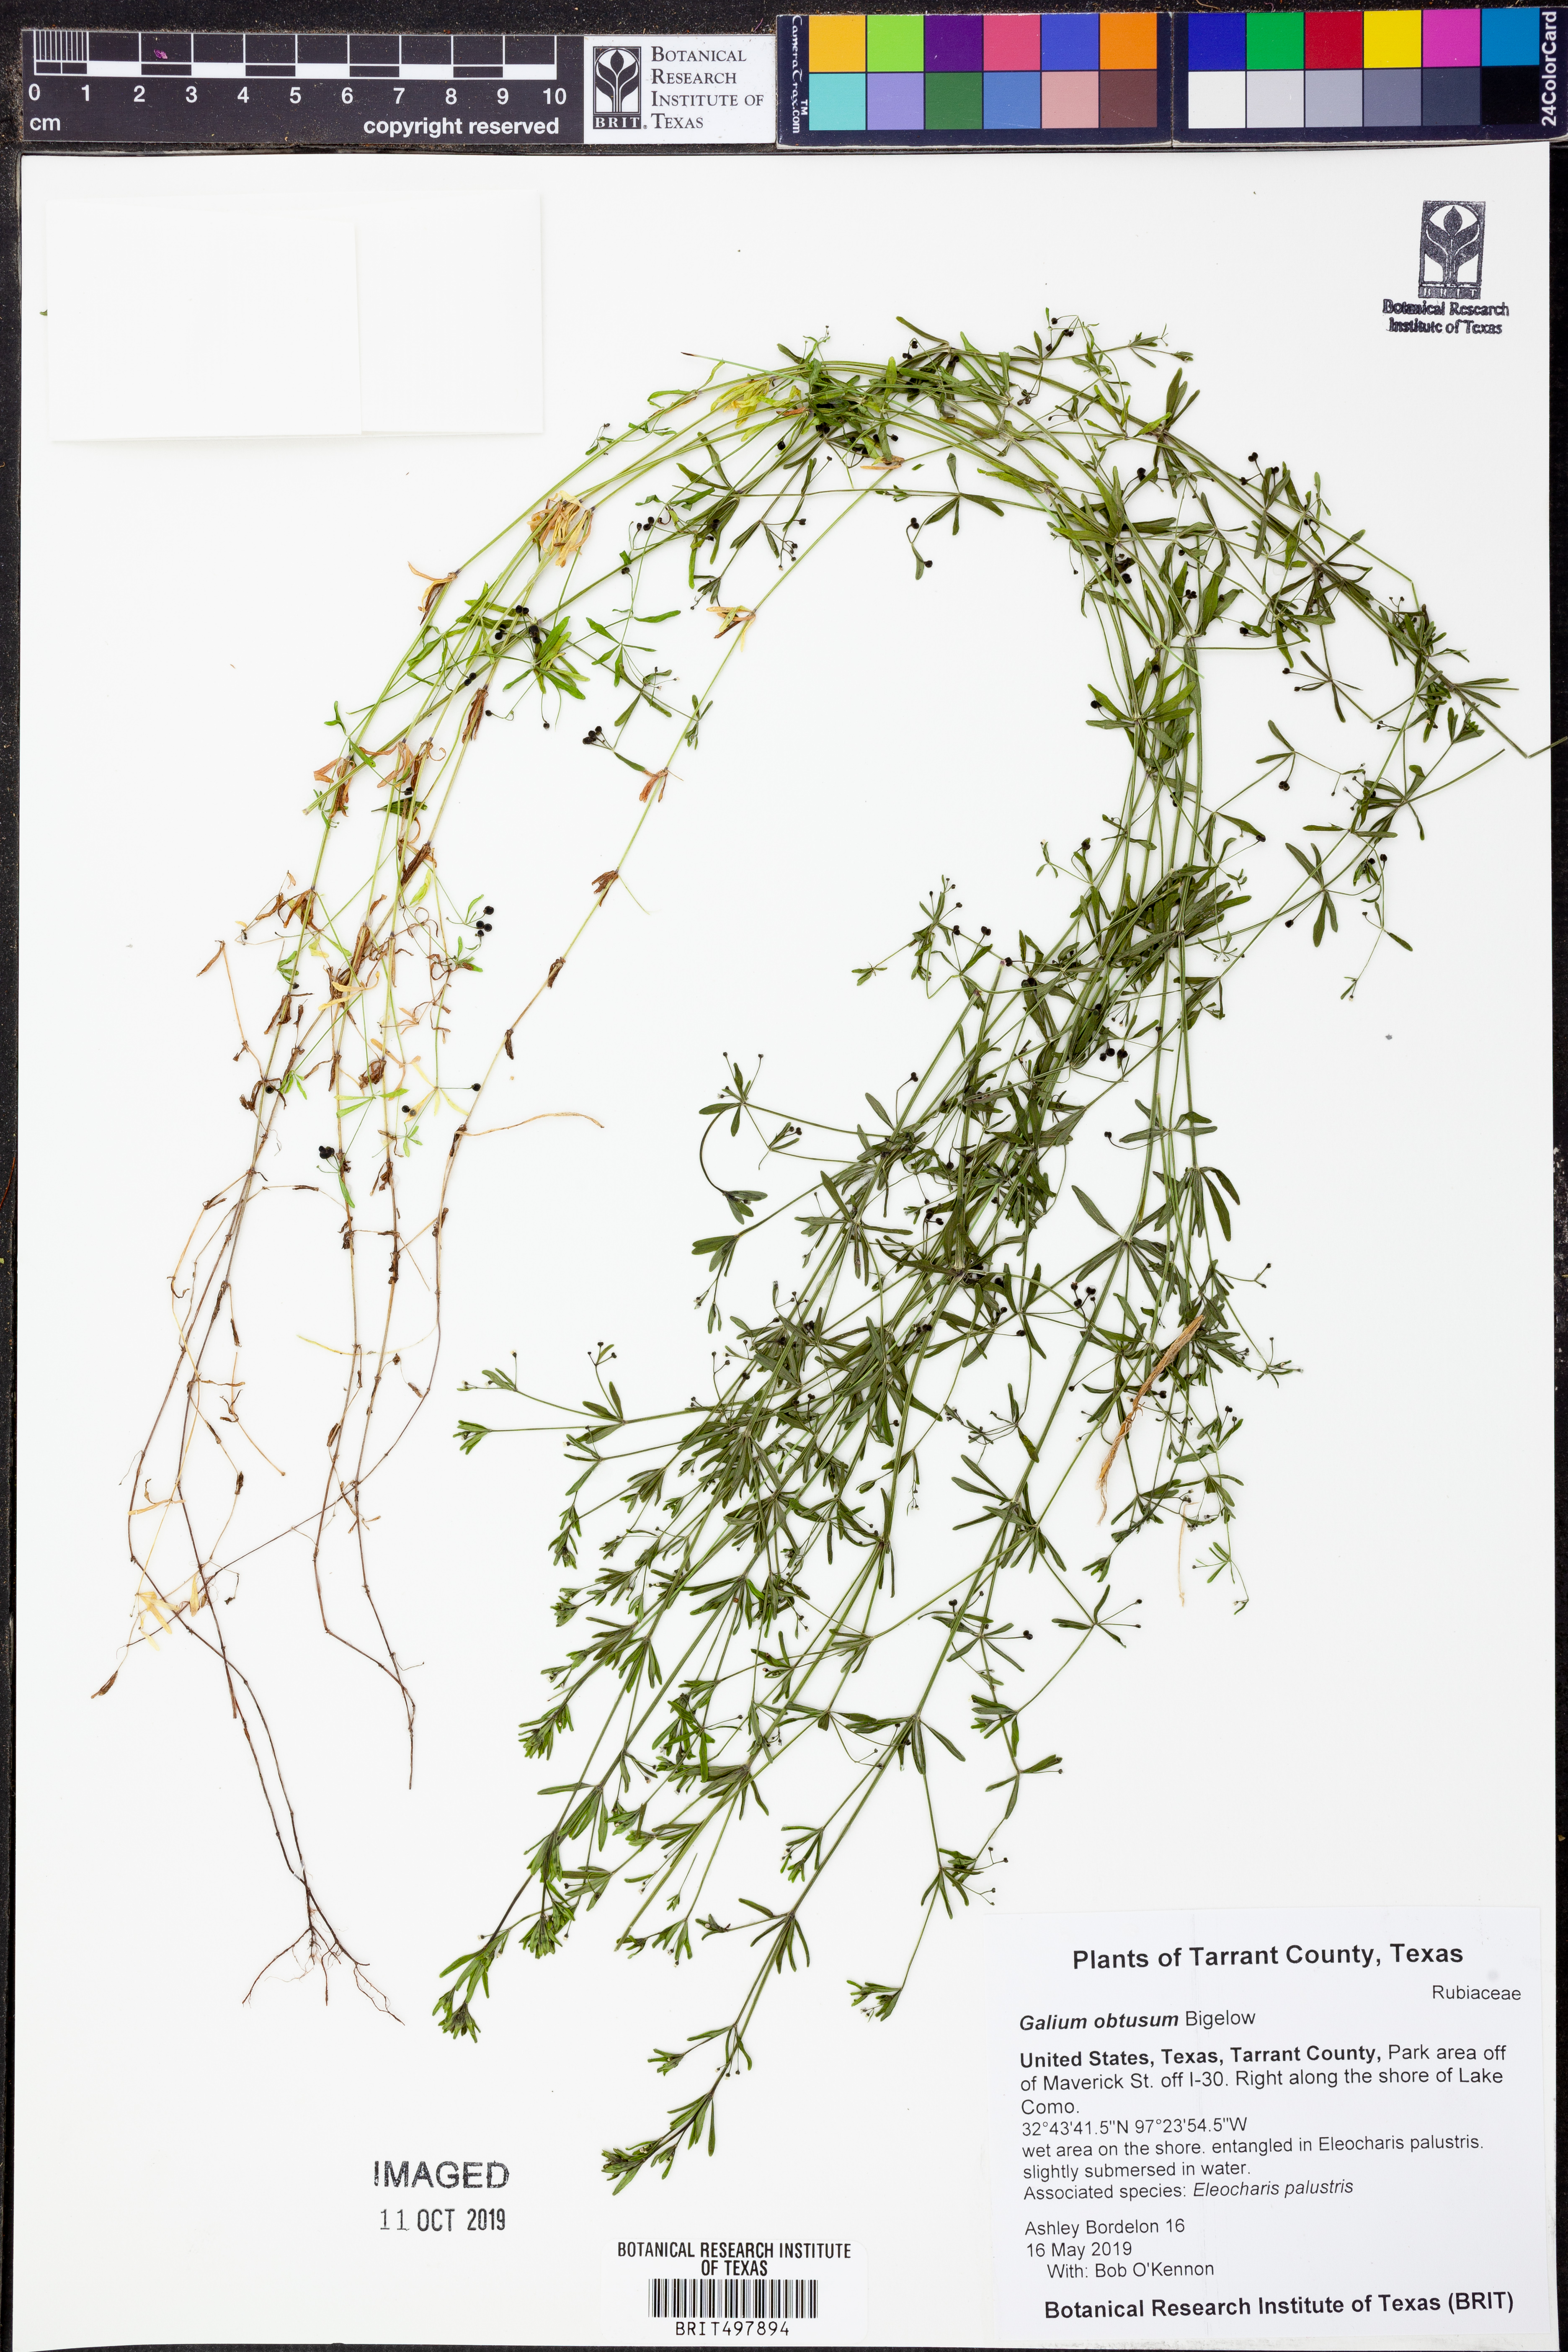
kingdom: Plantae
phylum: Tracheophyta
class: Magnoliopsida
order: Gentianales
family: Rubiaceae
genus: Galium
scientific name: Galium obtusum
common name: Blunt-leaved bedstraw
